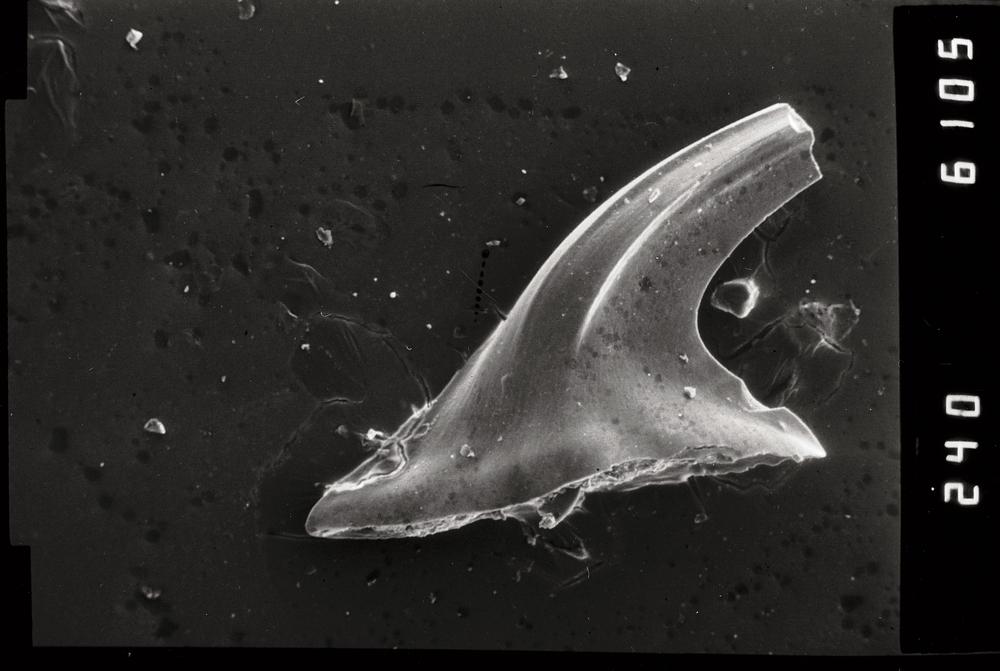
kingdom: Animalia
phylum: Chordata
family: Paracordylodontidae
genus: Oelandodus
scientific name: Oelandodus
